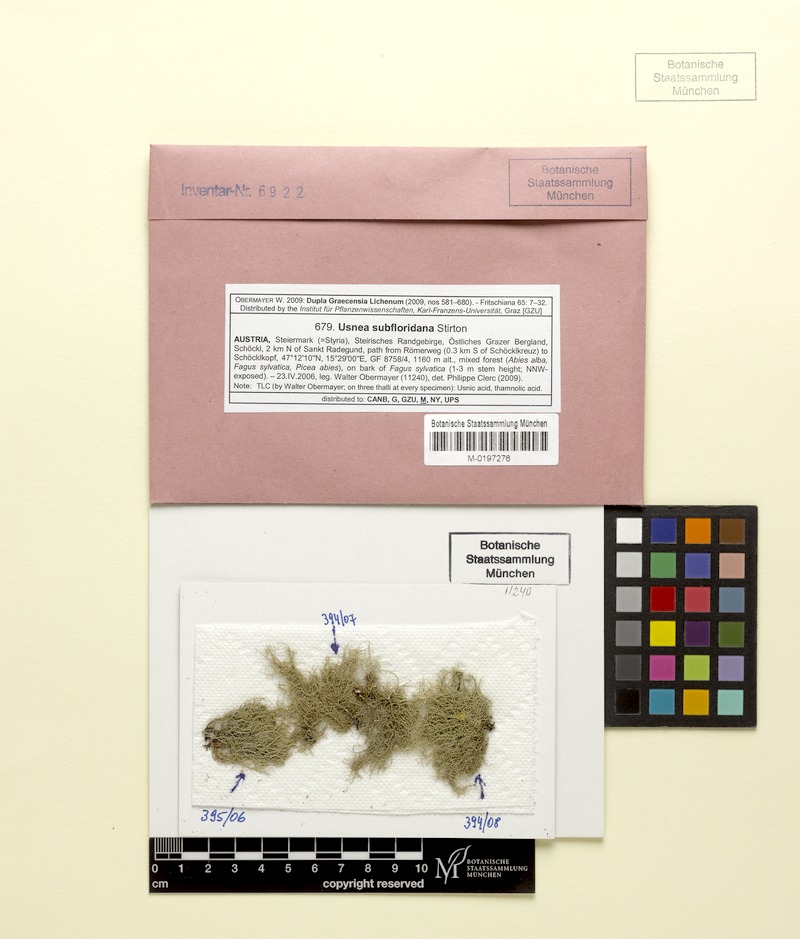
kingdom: Fungi
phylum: Ascomycota
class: Lecanoromycetes
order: Lecanorales
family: Parmeliaceae
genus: Usnea
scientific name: Usnea subfloridana
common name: Boreal beard lichen
